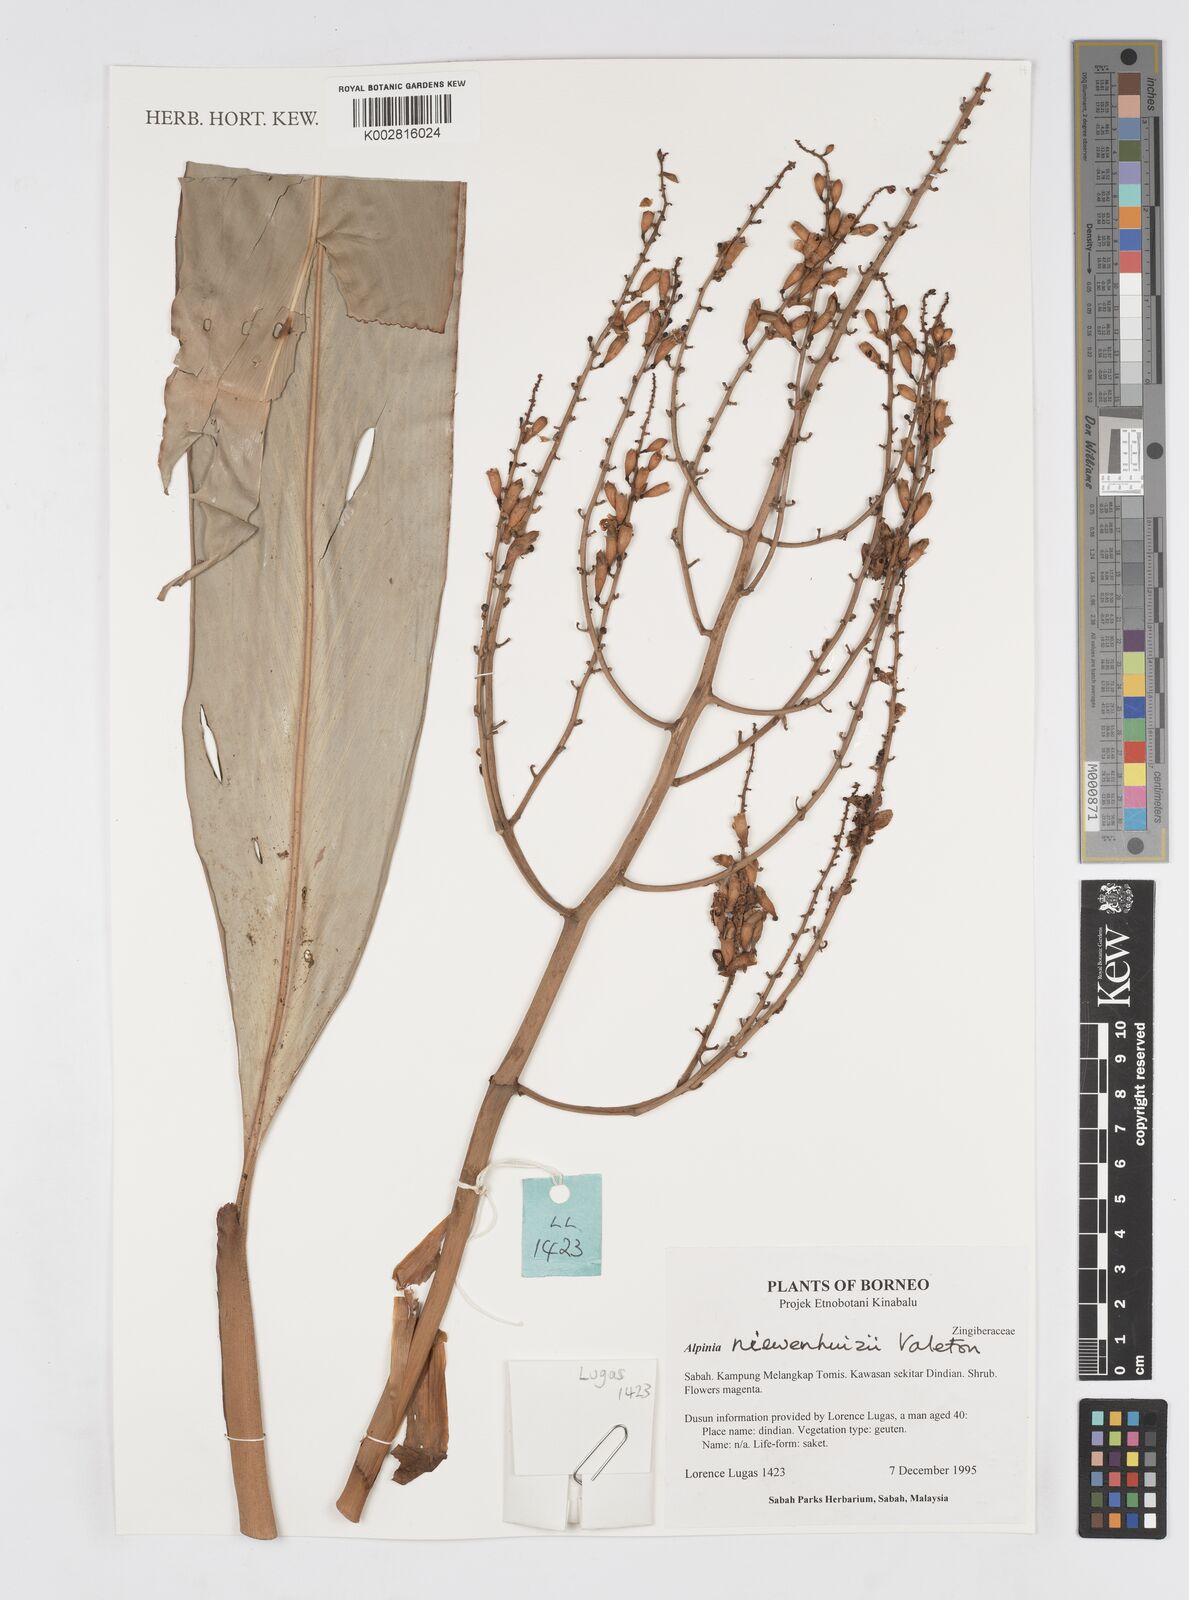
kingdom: Plantae
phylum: Tracheophyta
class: Liliopsida
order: Zingiberales
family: Zingiberaceae
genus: Alpinia
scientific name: Alpinia nieuwenhuizii
